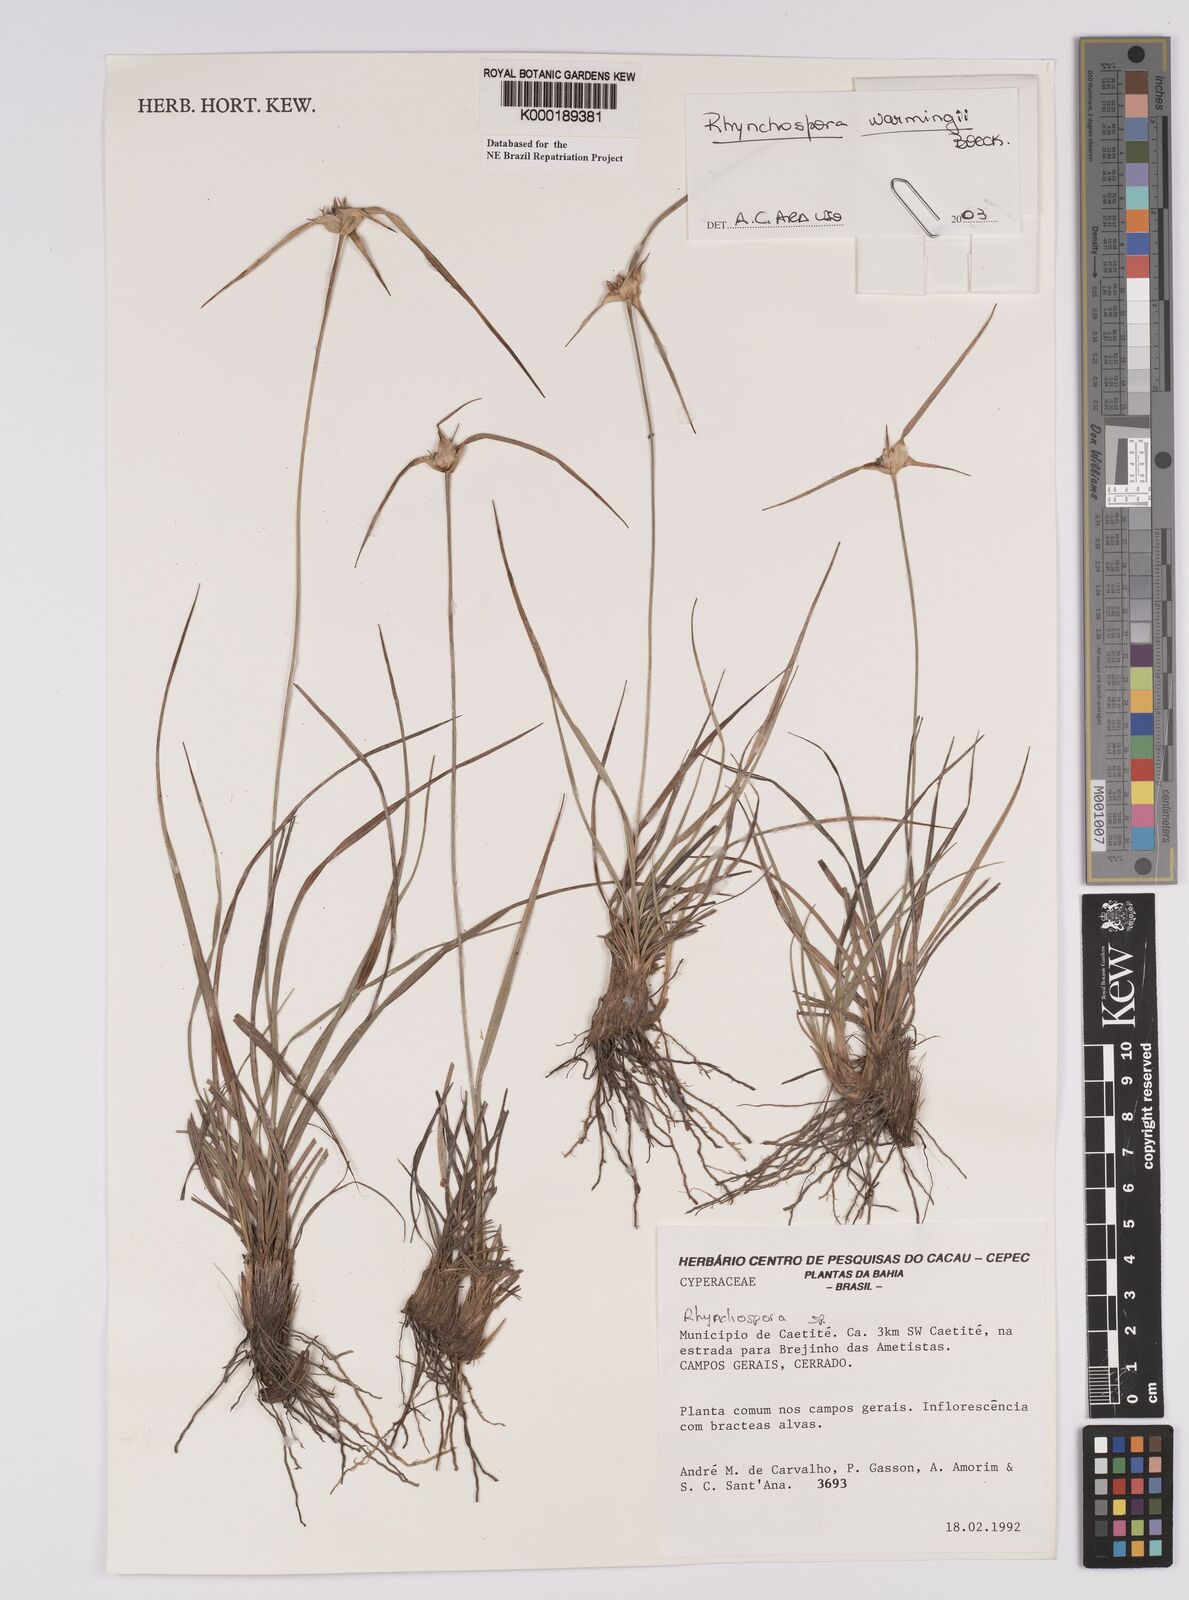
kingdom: Plantae
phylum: Tracheophyta
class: Liliopsida
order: Poales
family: Cyperaceae
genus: Rhynchospora
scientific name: Rhynchospora warmingii
